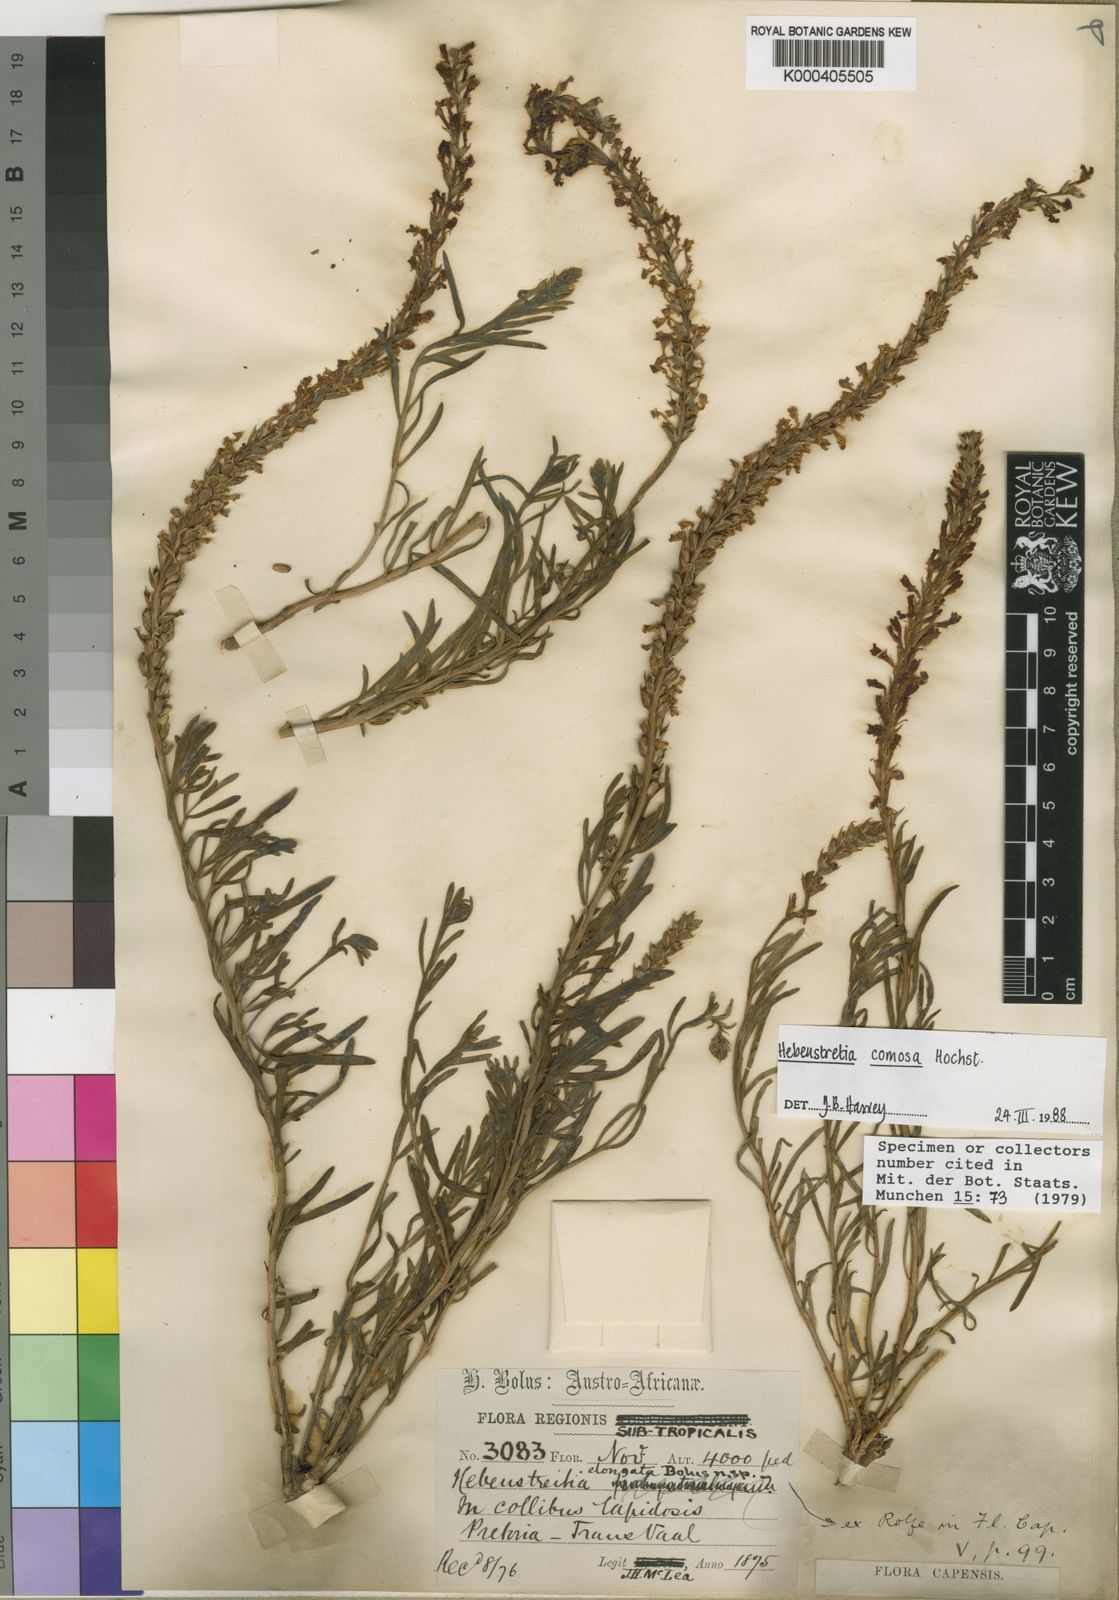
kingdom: Plantae
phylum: Tracheophyta
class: Magnoliopsida
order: Lamiales
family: Scrophulariaceae
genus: Hebenstretia
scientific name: Hebenstretia comosa
